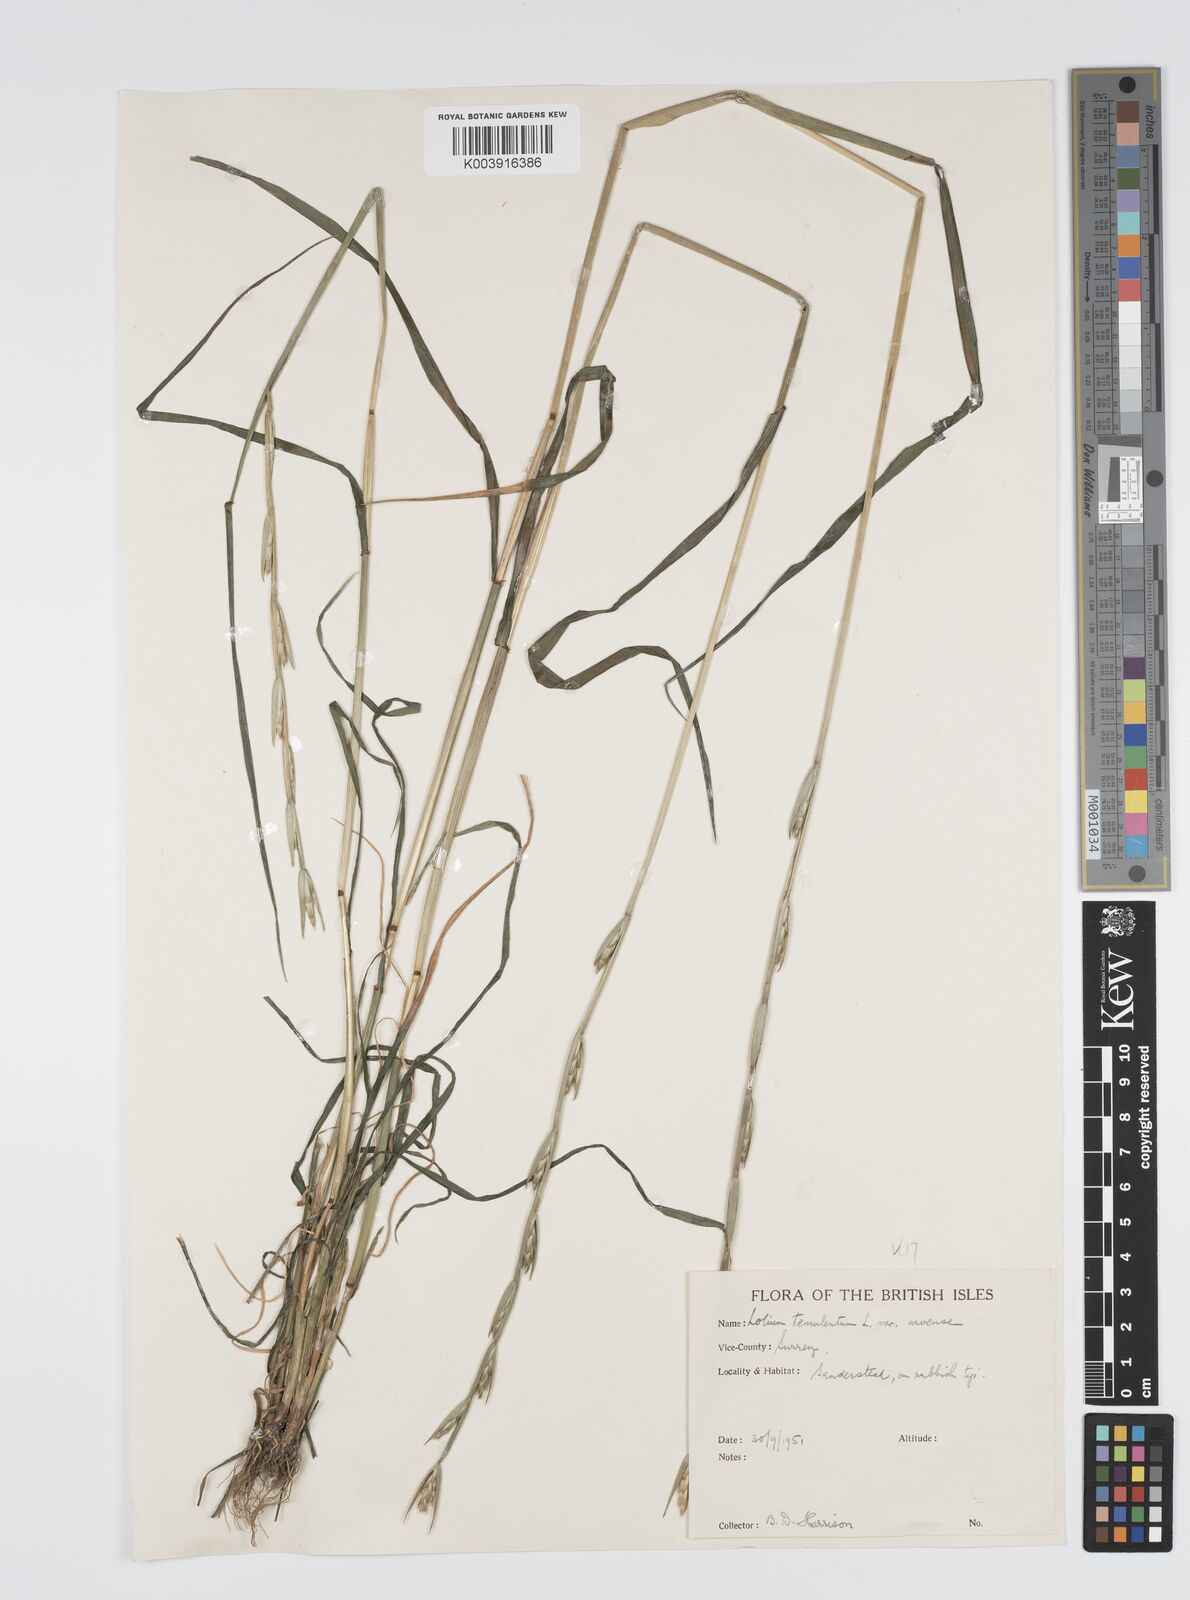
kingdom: Plantae
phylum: Tracheophyta
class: Liliopsida
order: Poales
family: Poaceae
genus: Lolium
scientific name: Lolium temulentum
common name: Darnel
